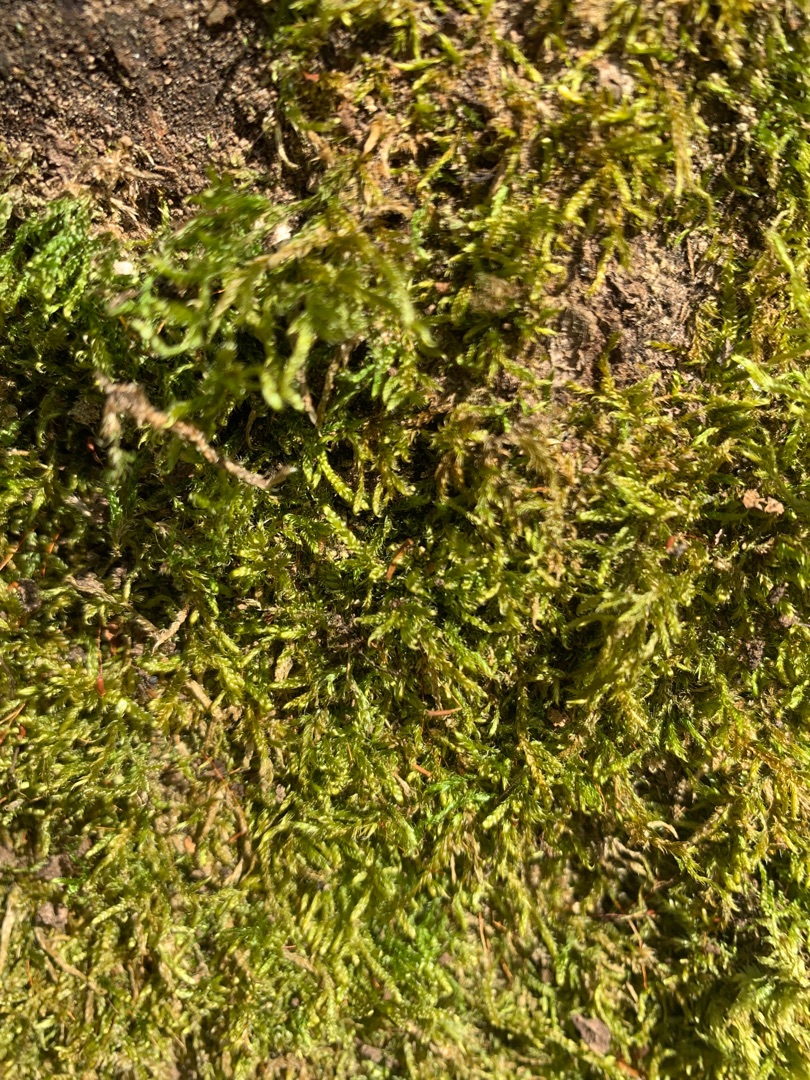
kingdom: Plantae
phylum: Bryophyta
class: Bryopsida
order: Hypnales
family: Hypnaceae
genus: Hypnum
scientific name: Hypnum
